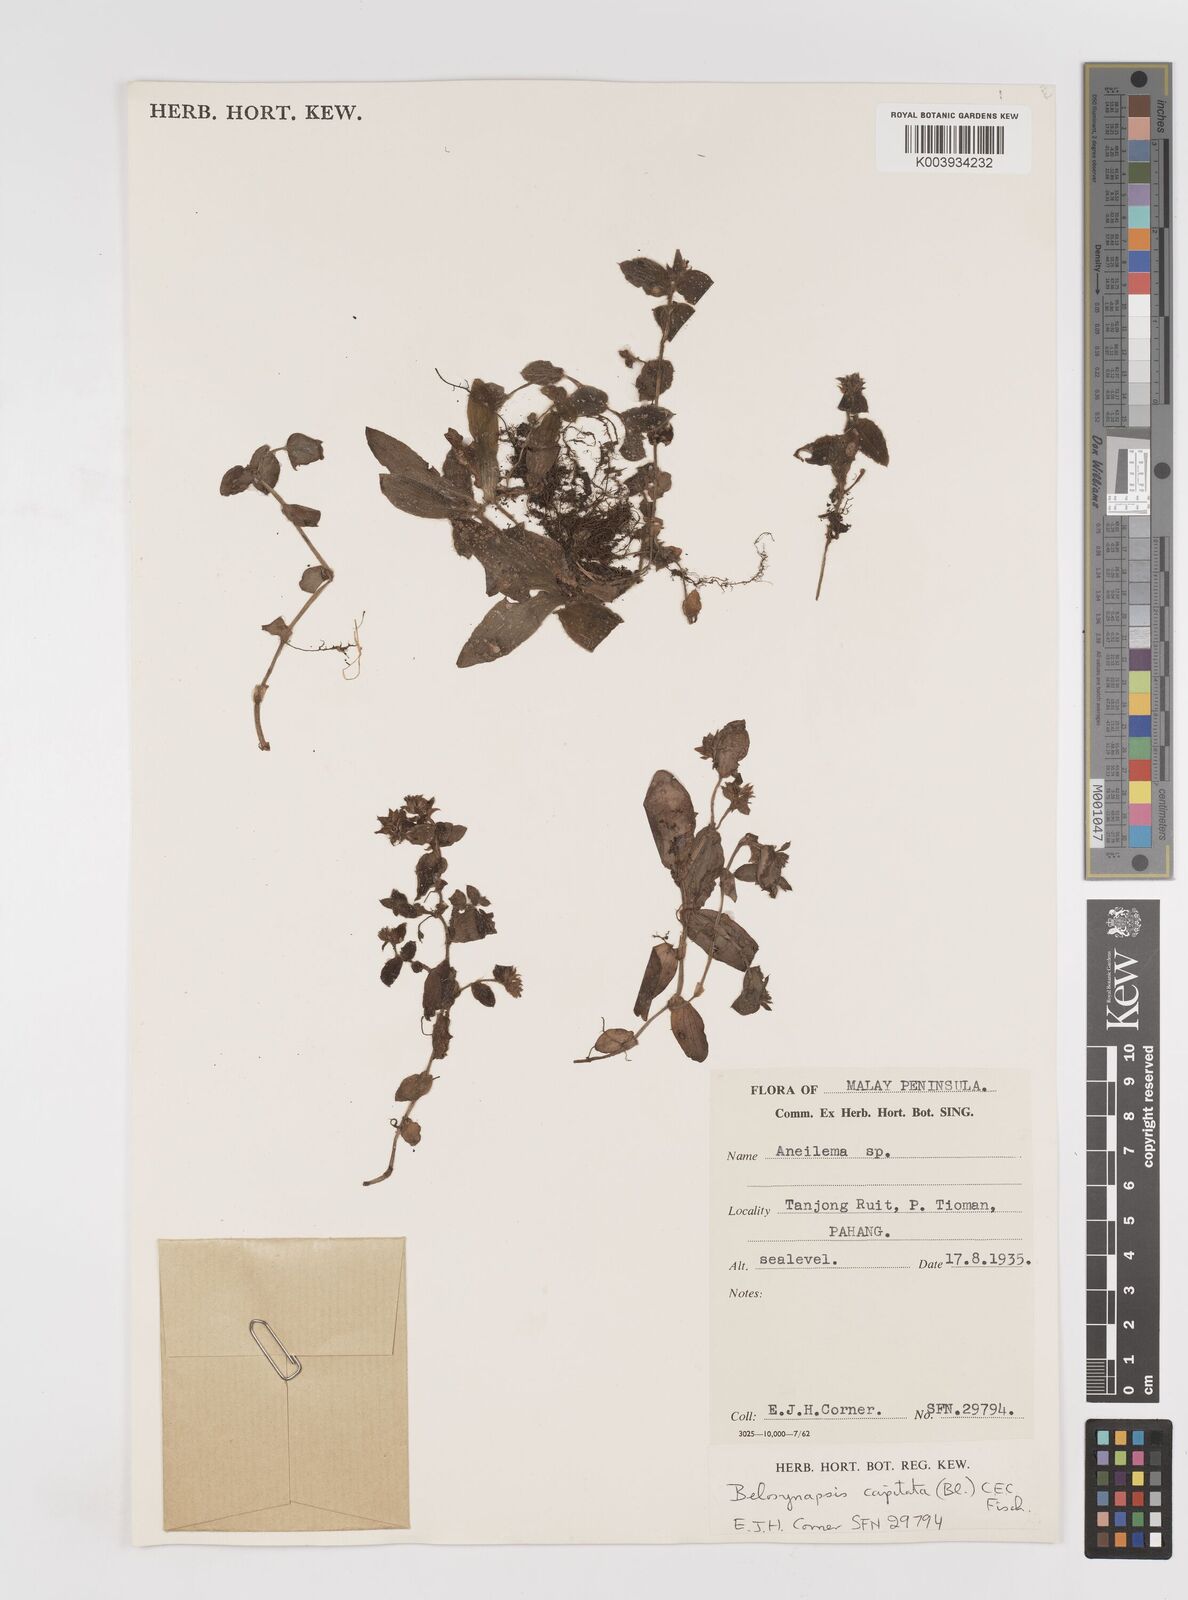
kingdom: Plantae
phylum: Tracheophyta
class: Liliopsida
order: Commelinales
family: Commelinaceae
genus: Cyanotis
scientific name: Cyanotis ciliata
